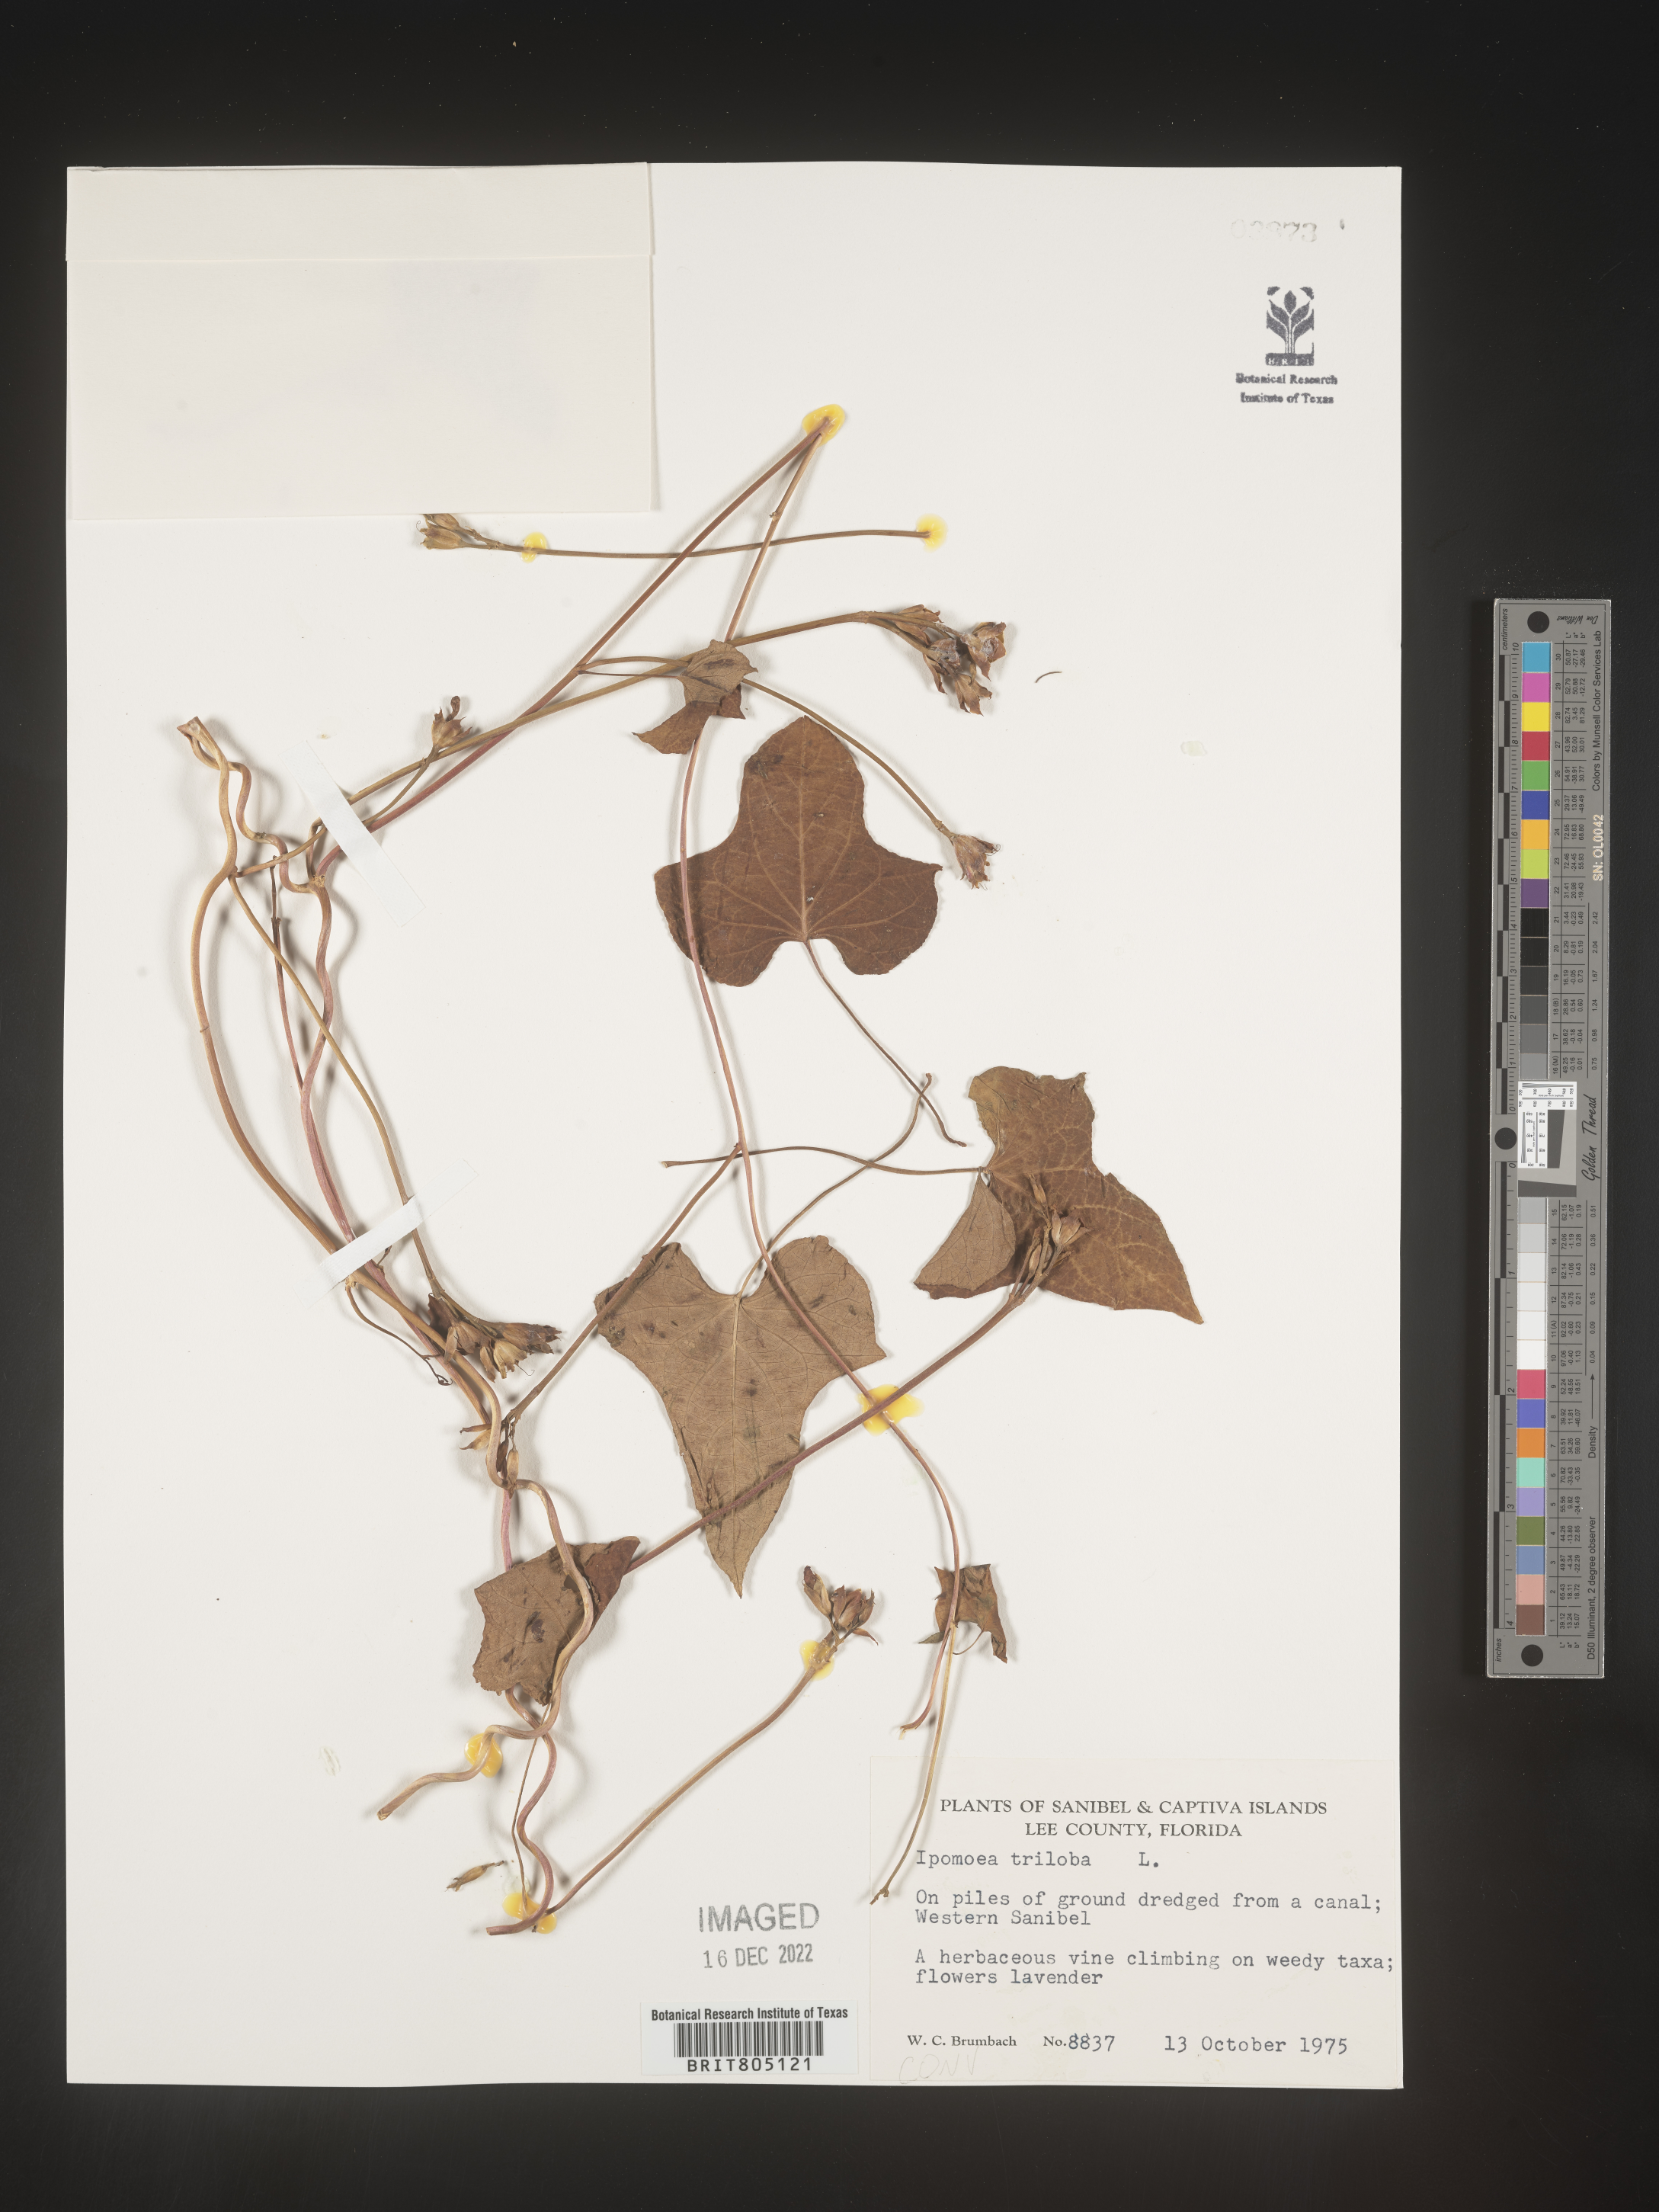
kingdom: Plantae
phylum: Tracheophyta
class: Magnoliopsida
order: Solanales
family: Convolvulaceae
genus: Ipomoea
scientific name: Ipomoea triloba
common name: Little-bell
